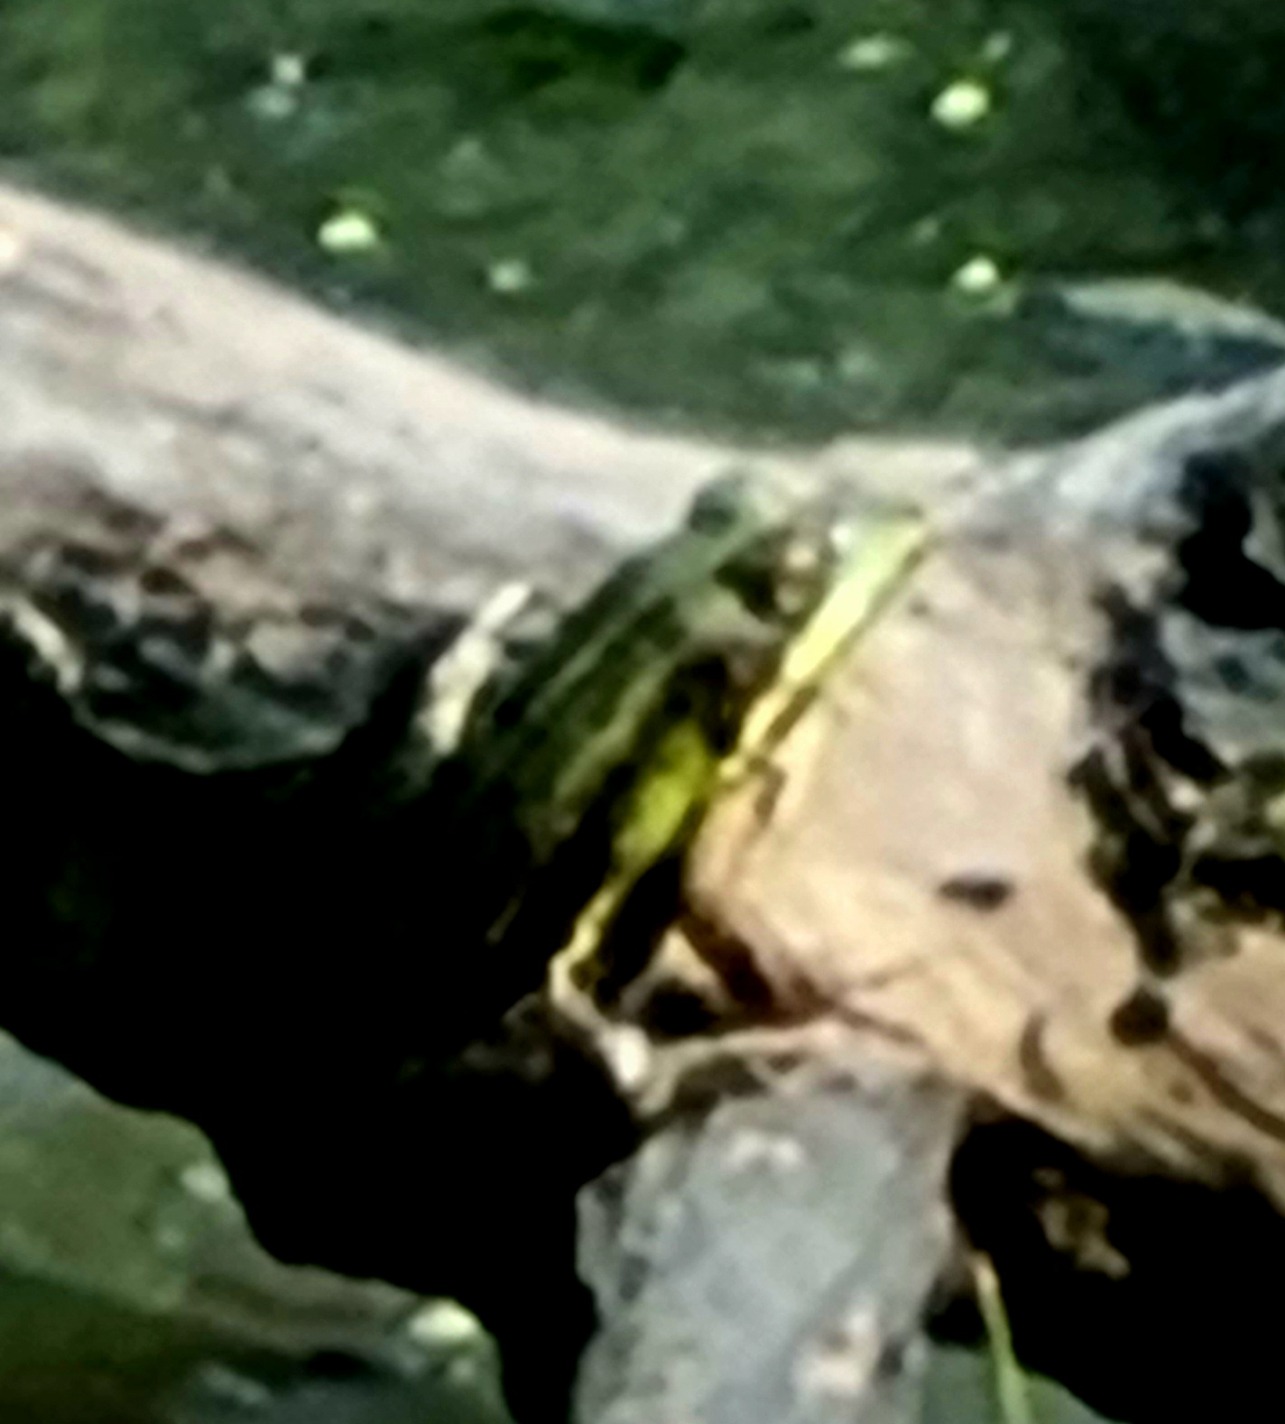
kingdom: Animalia
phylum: Chordata
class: Amphibia
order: Anura
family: Ranidae
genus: Pelophylax
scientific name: Pelophylax lessonae
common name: Grøn frø
